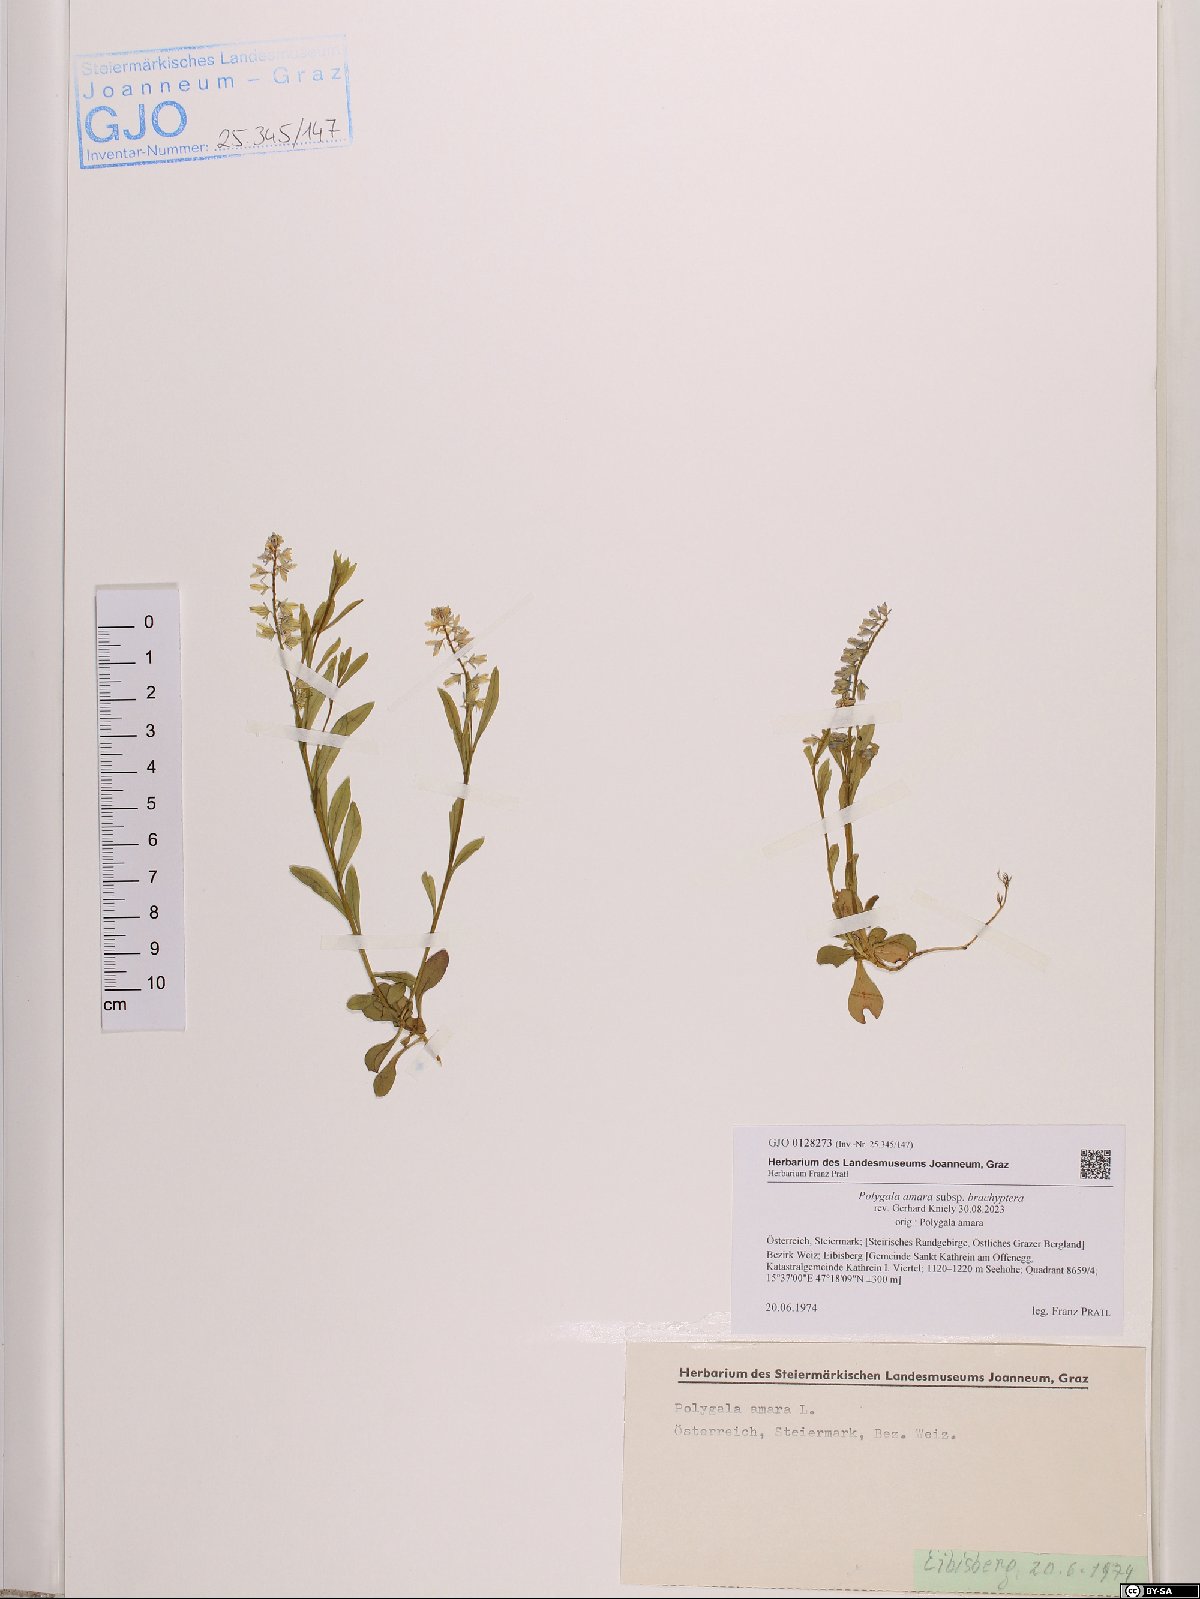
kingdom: Plantae
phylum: Tracheophyta
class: Magnoliopsida
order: Fabales
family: Polygalaceae
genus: Polygala
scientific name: Polygala amara
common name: Milkwort
